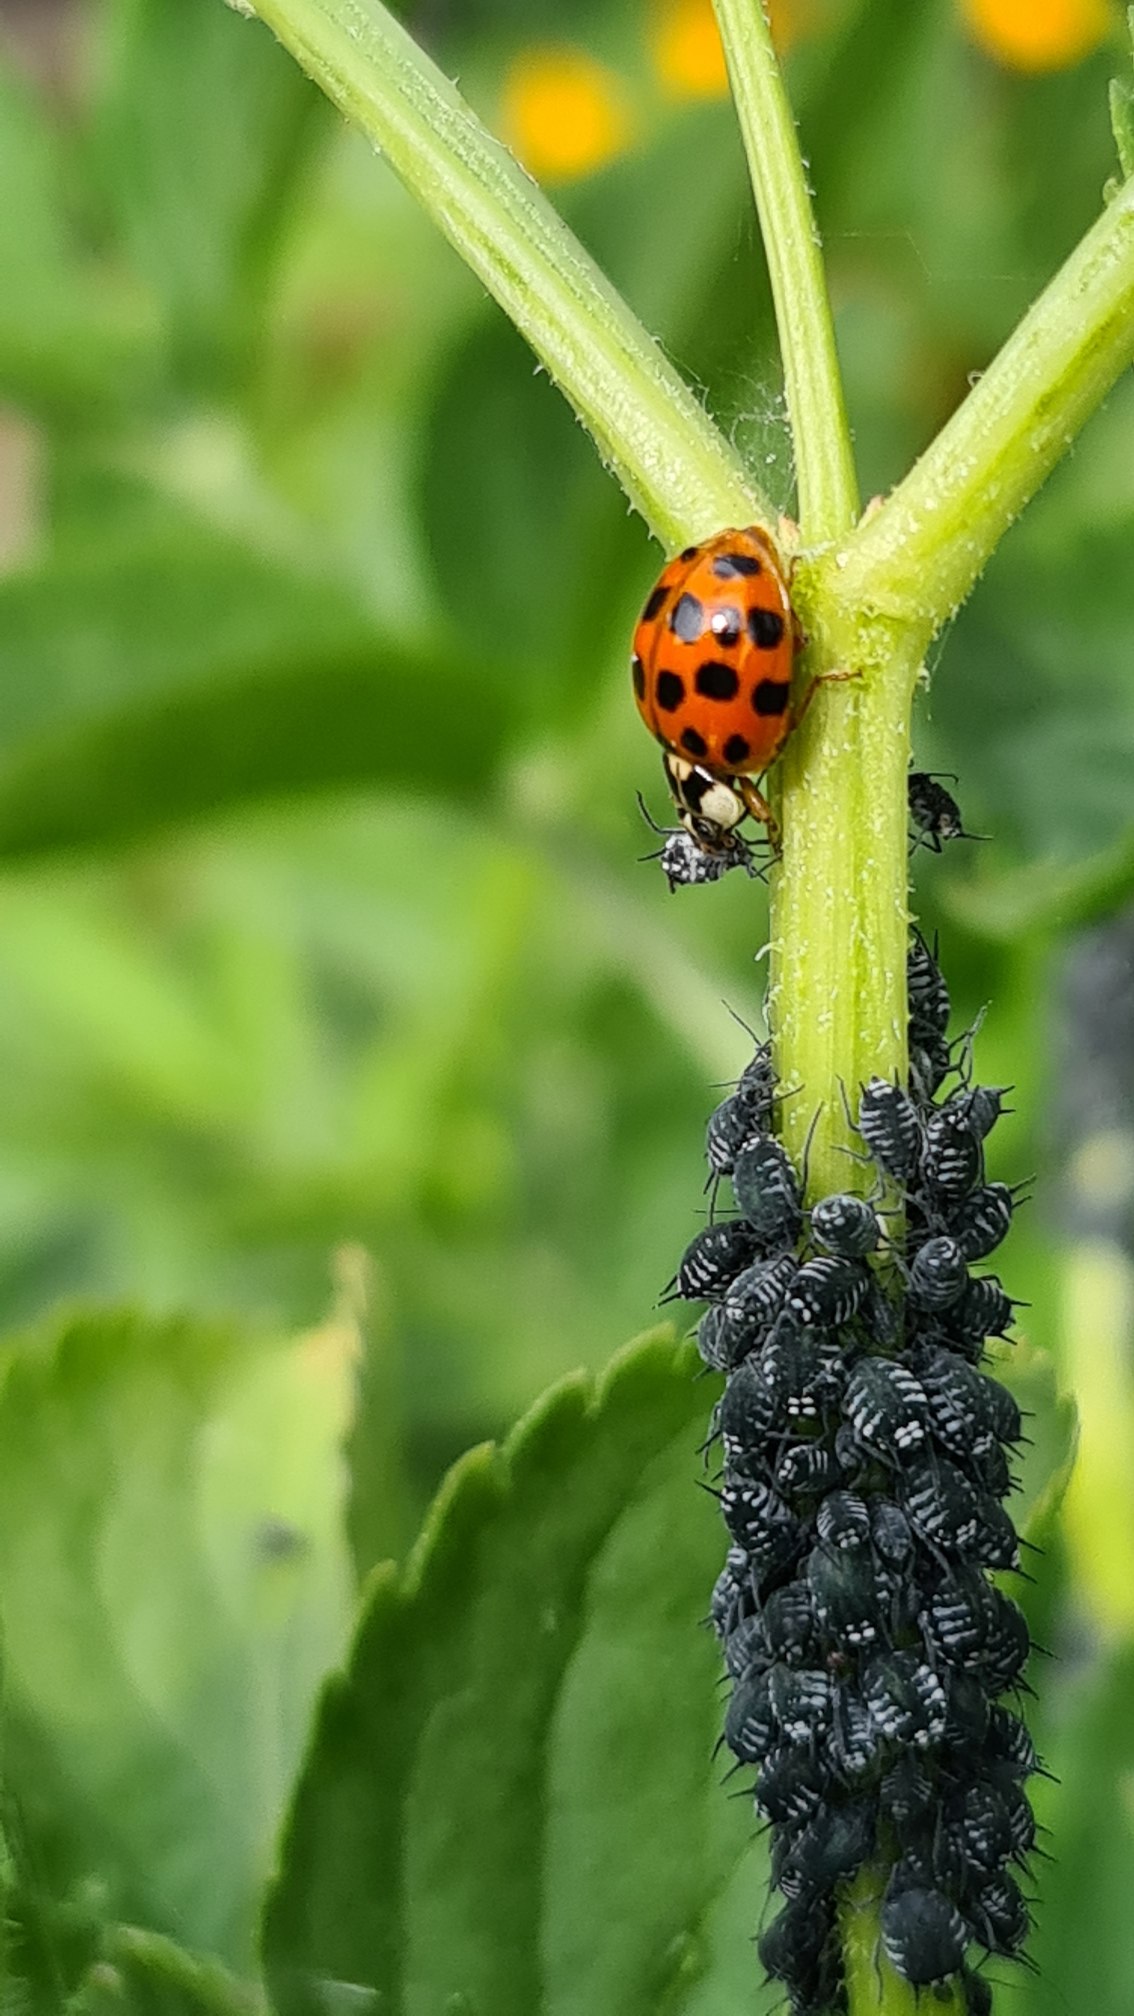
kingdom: Animalia
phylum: Arthropoda
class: Insecta
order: Coleoptera
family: Coccinellidae
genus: Harmonia
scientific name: Harmonia axyridis
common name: Harlekinmariehøne
